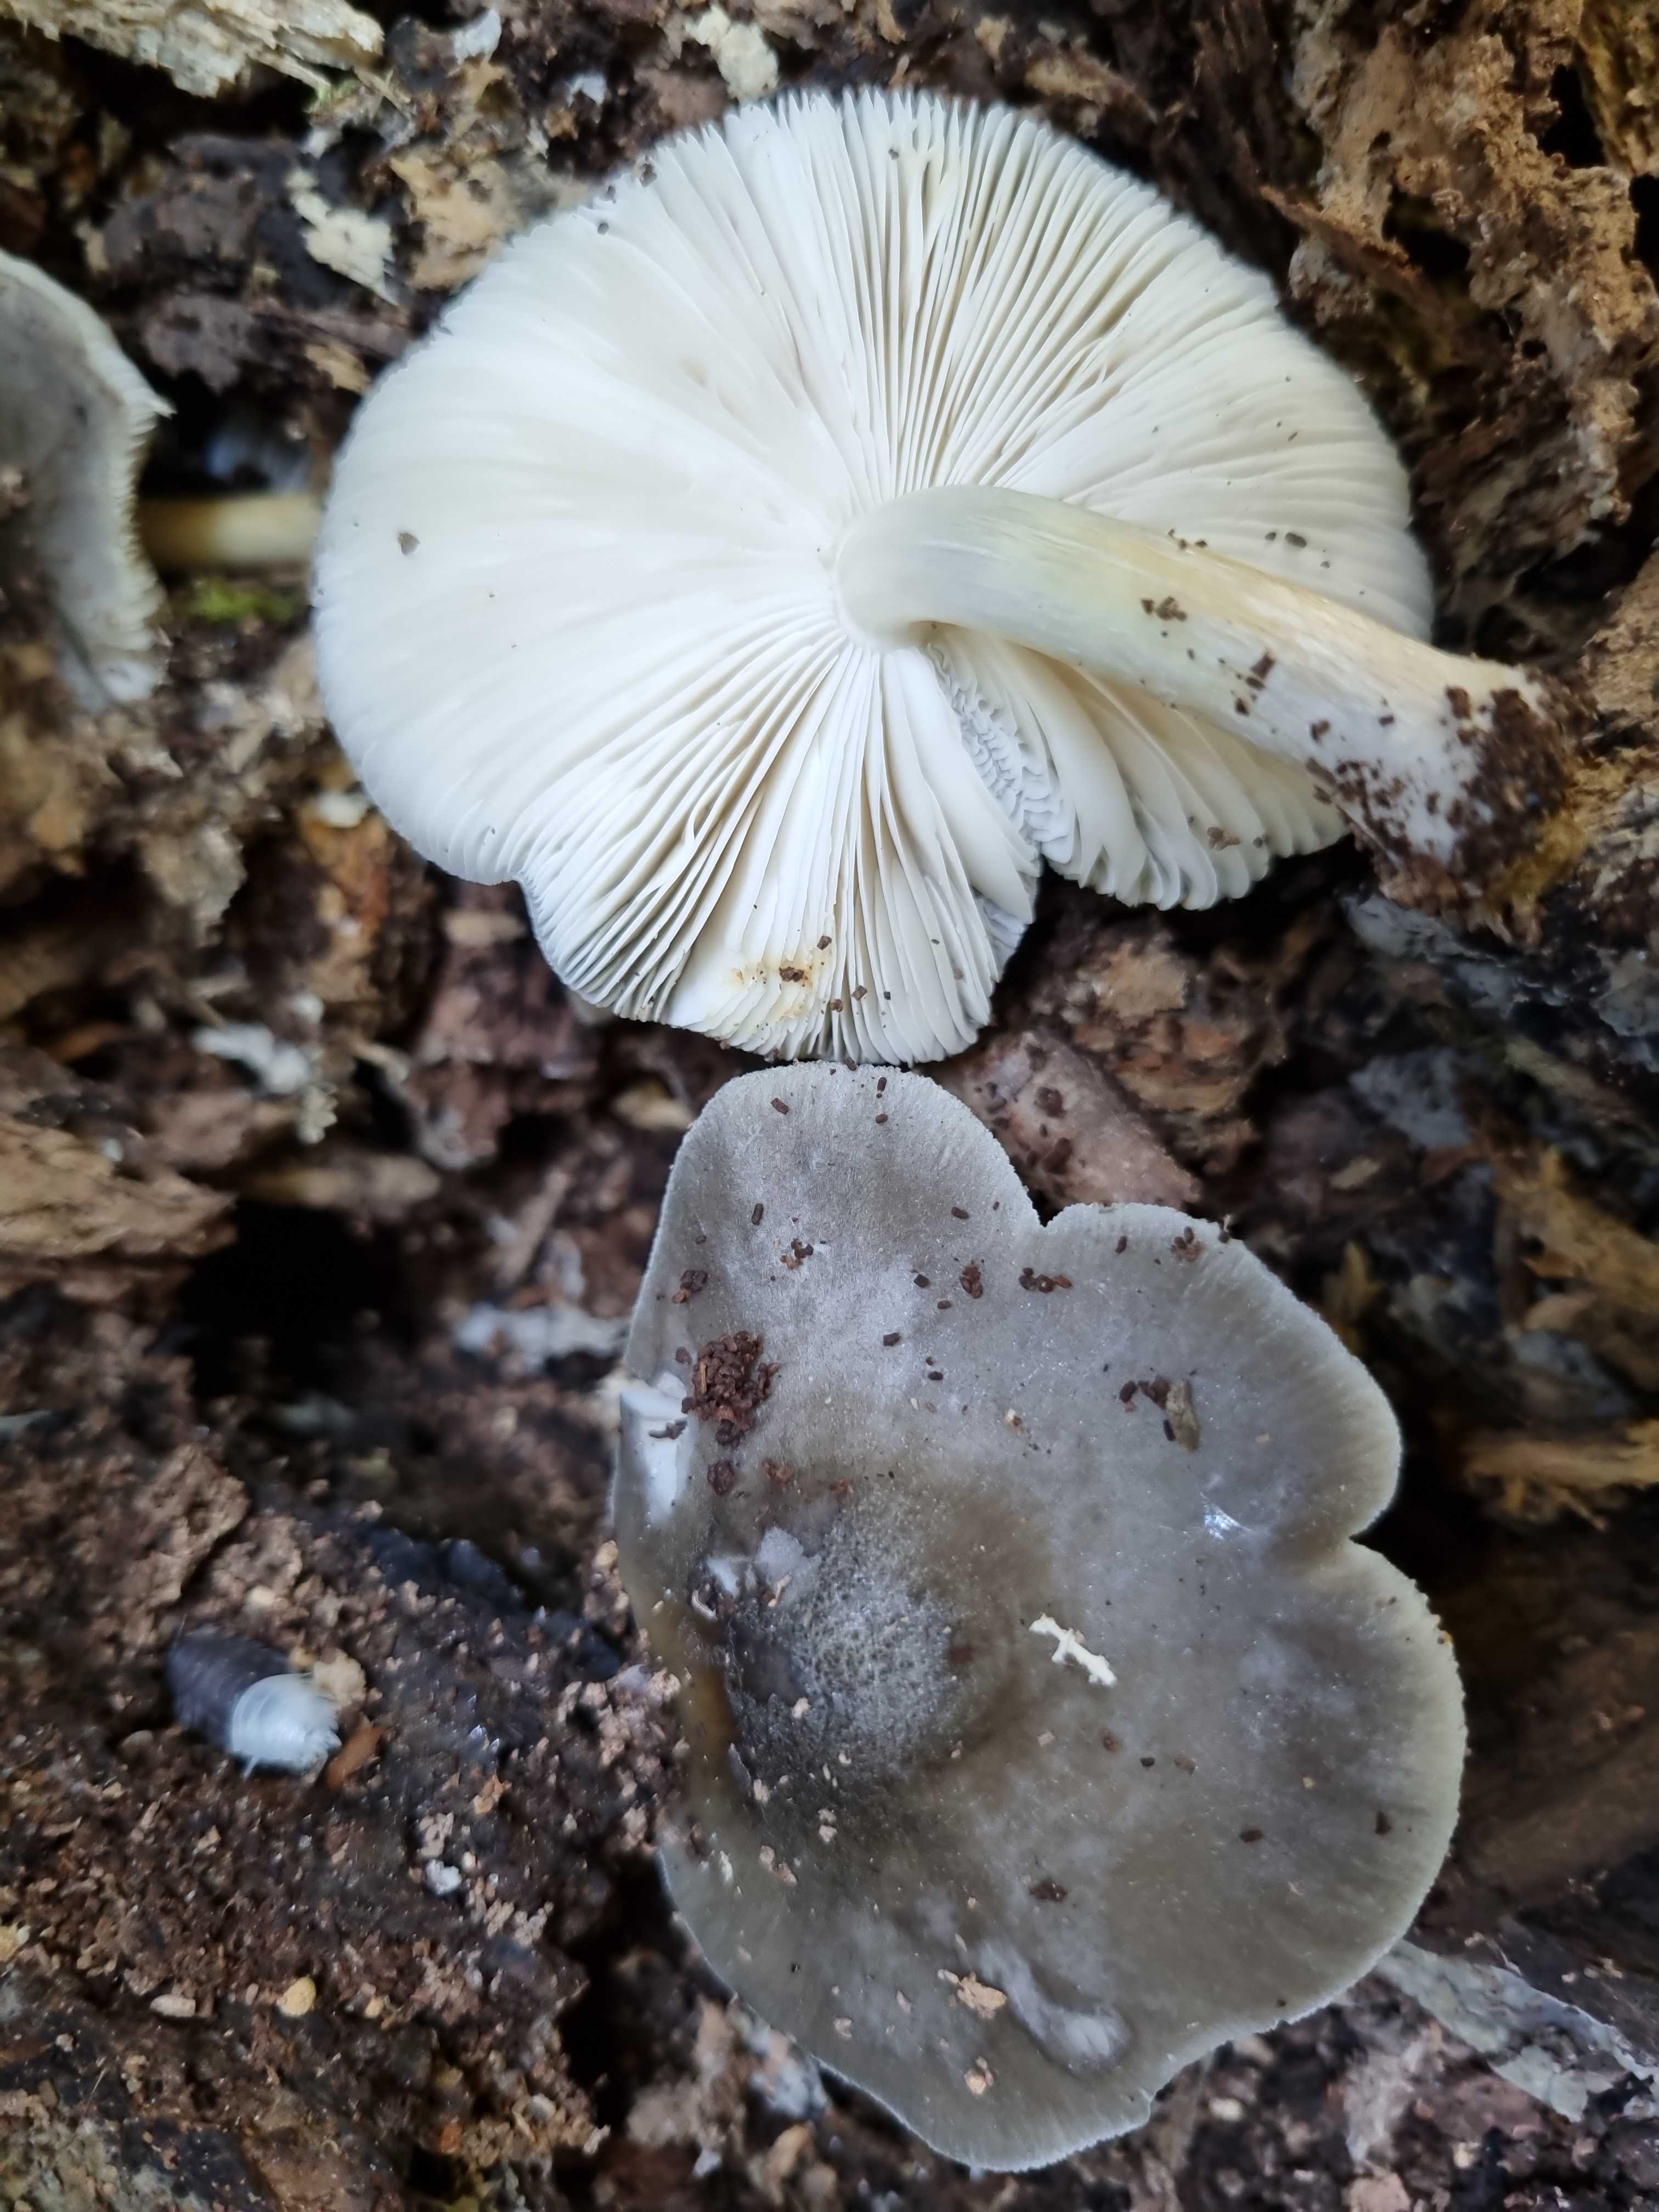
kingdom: Fungi
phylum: Basidiomycota
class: Agaricomycetes
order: Agaricales
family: Pluteaceae
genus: Pluteus
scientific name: Pluteus salicinus
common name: stiv skærmhat
